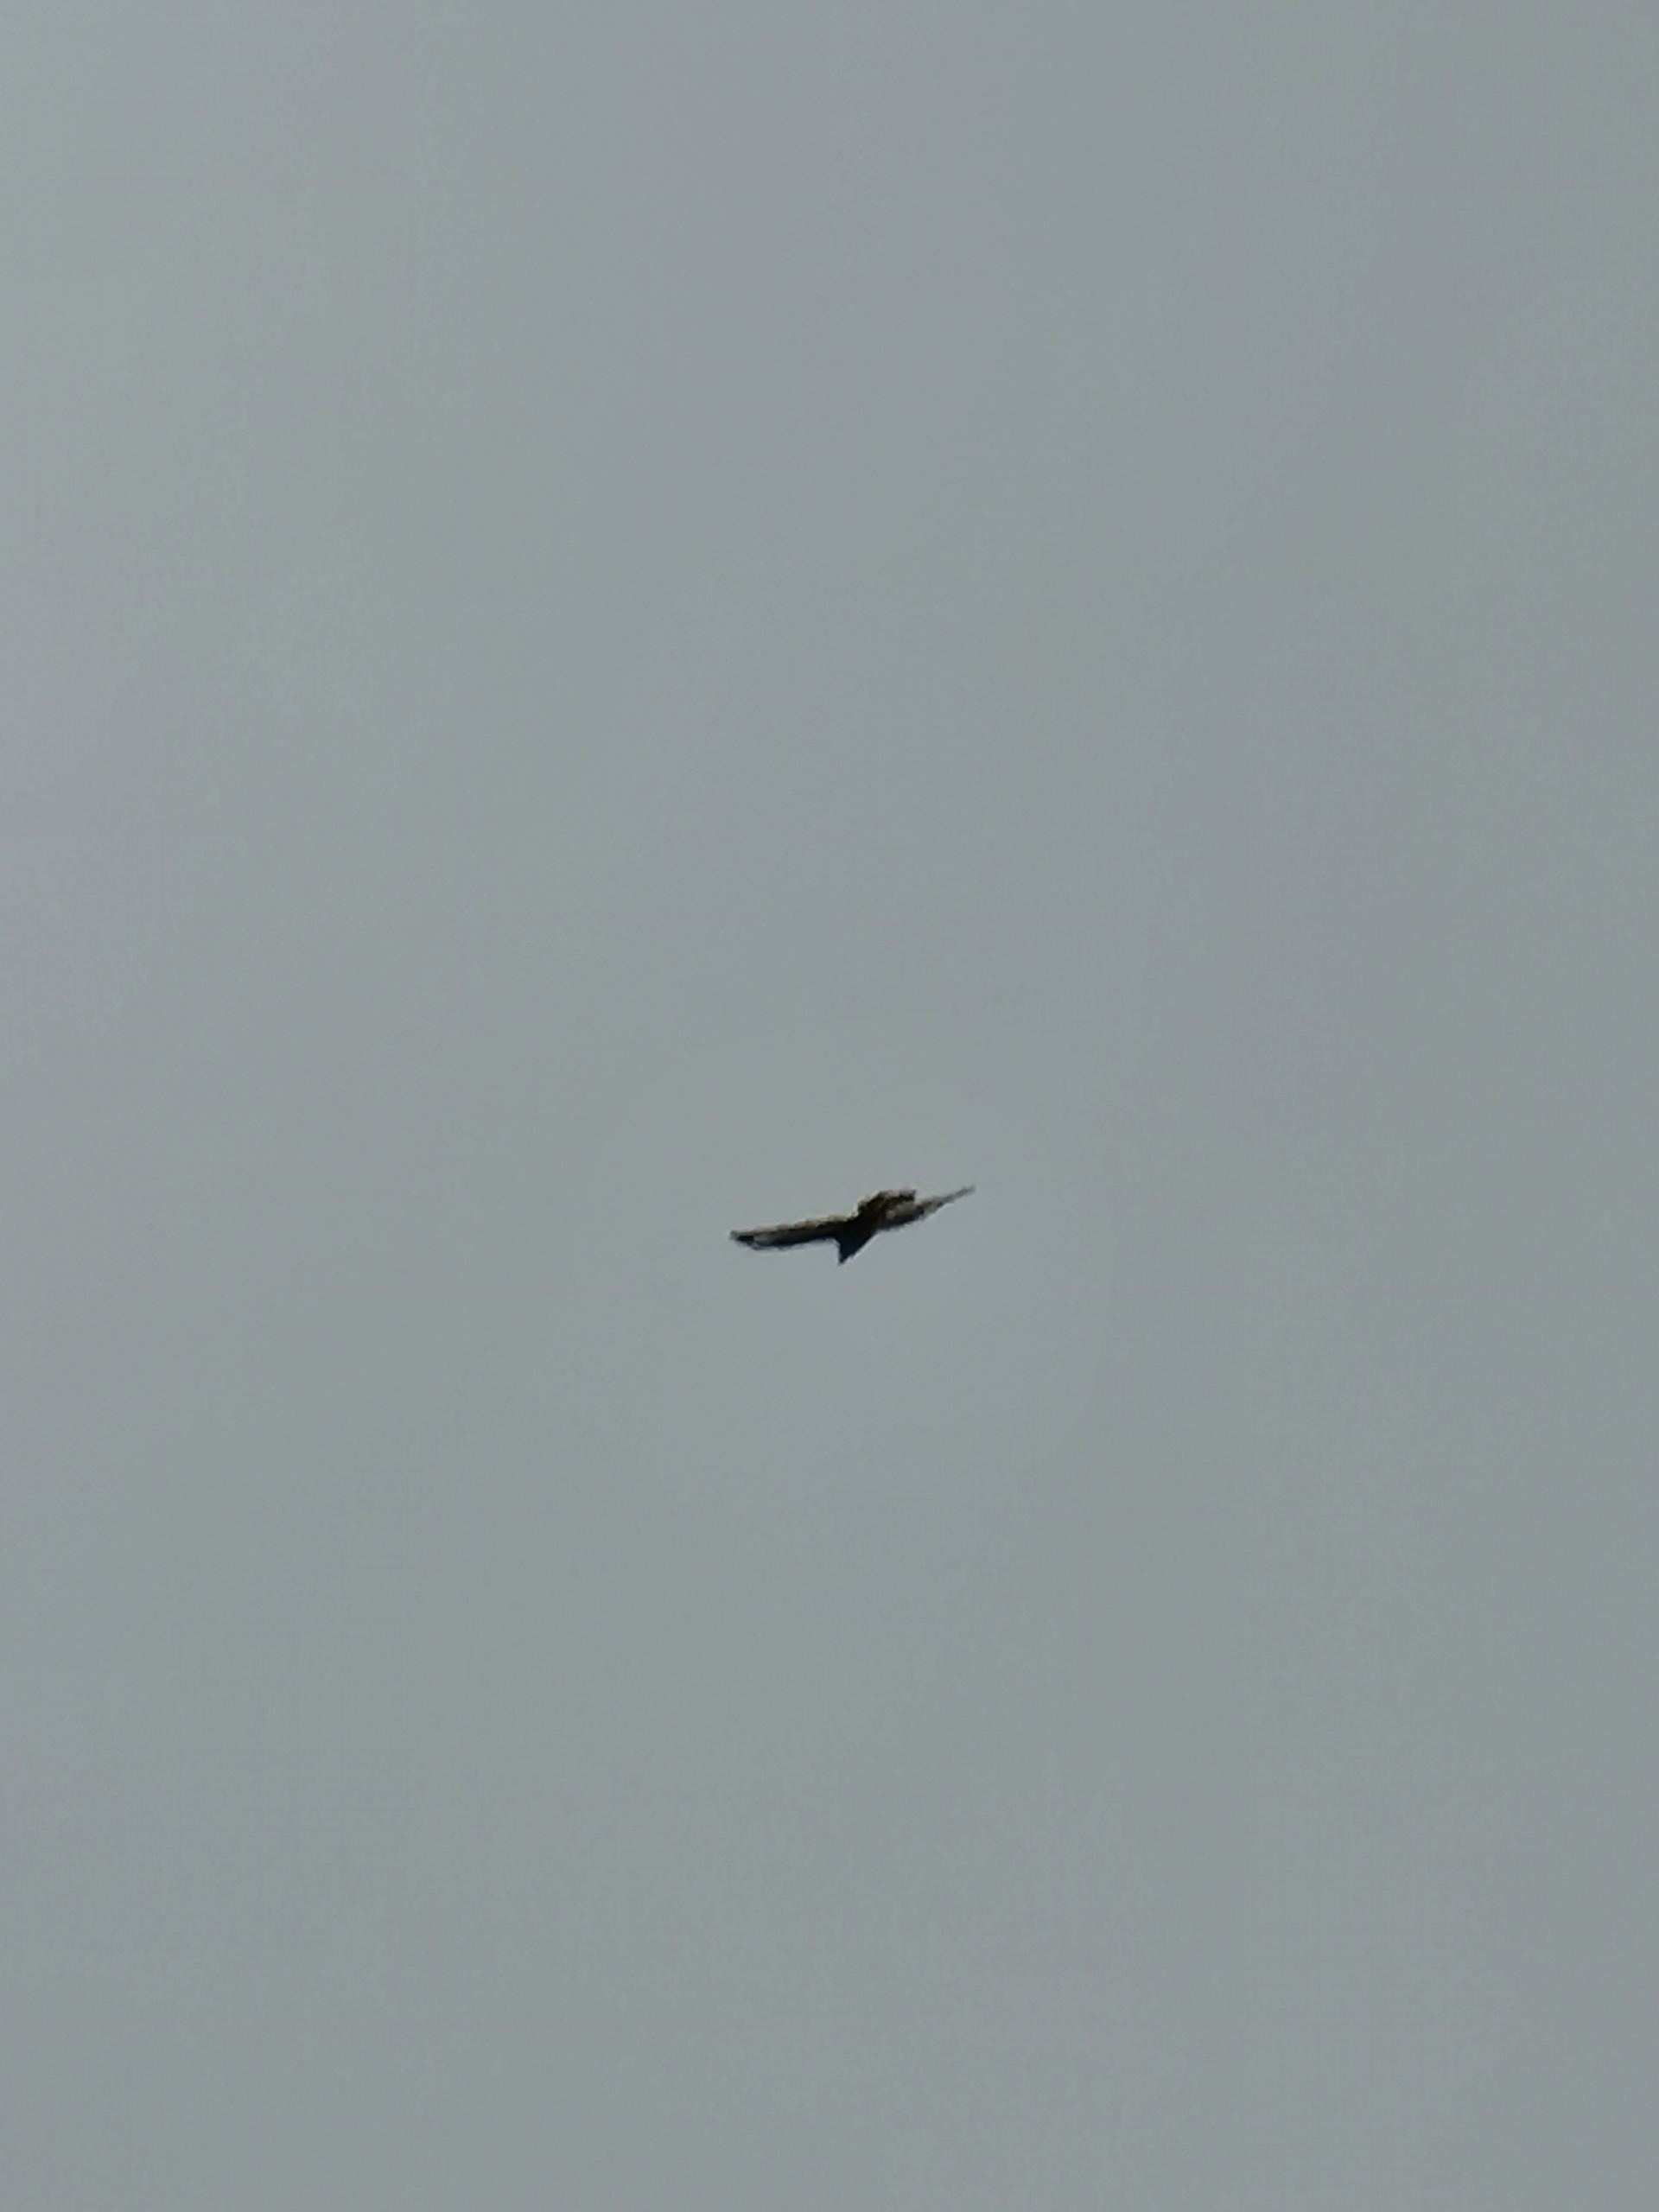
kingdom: Animalia
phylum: Chordata
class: Aves
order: Accipitriformes
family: Accipitridae
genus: Buteo
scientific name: Buteo buteo
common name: Musvåge
